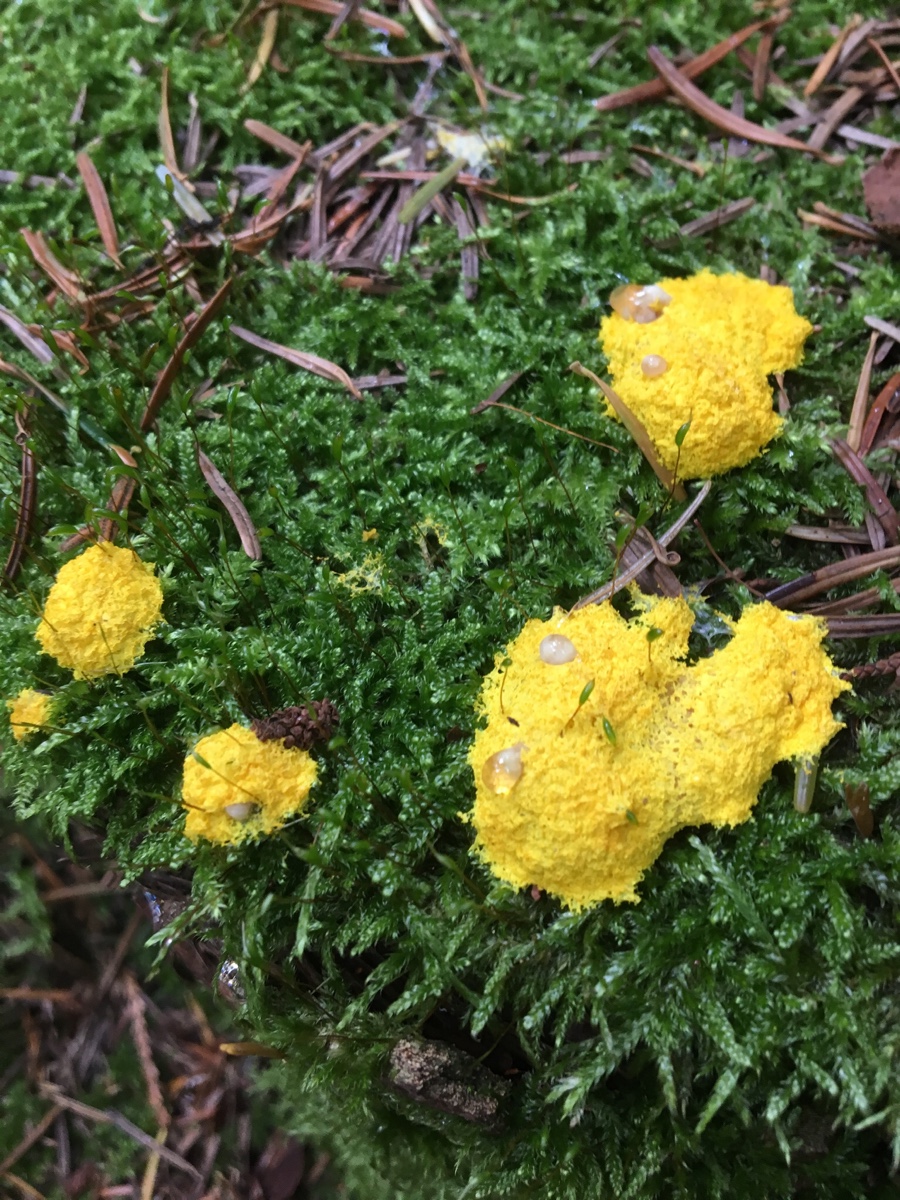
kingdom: Protozoa
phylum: Mycetozoa
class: Myxomycetes
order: Physarales
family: Physaraceae
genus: Fuligo
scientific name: Fuligo septica
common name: gul troldsmør
